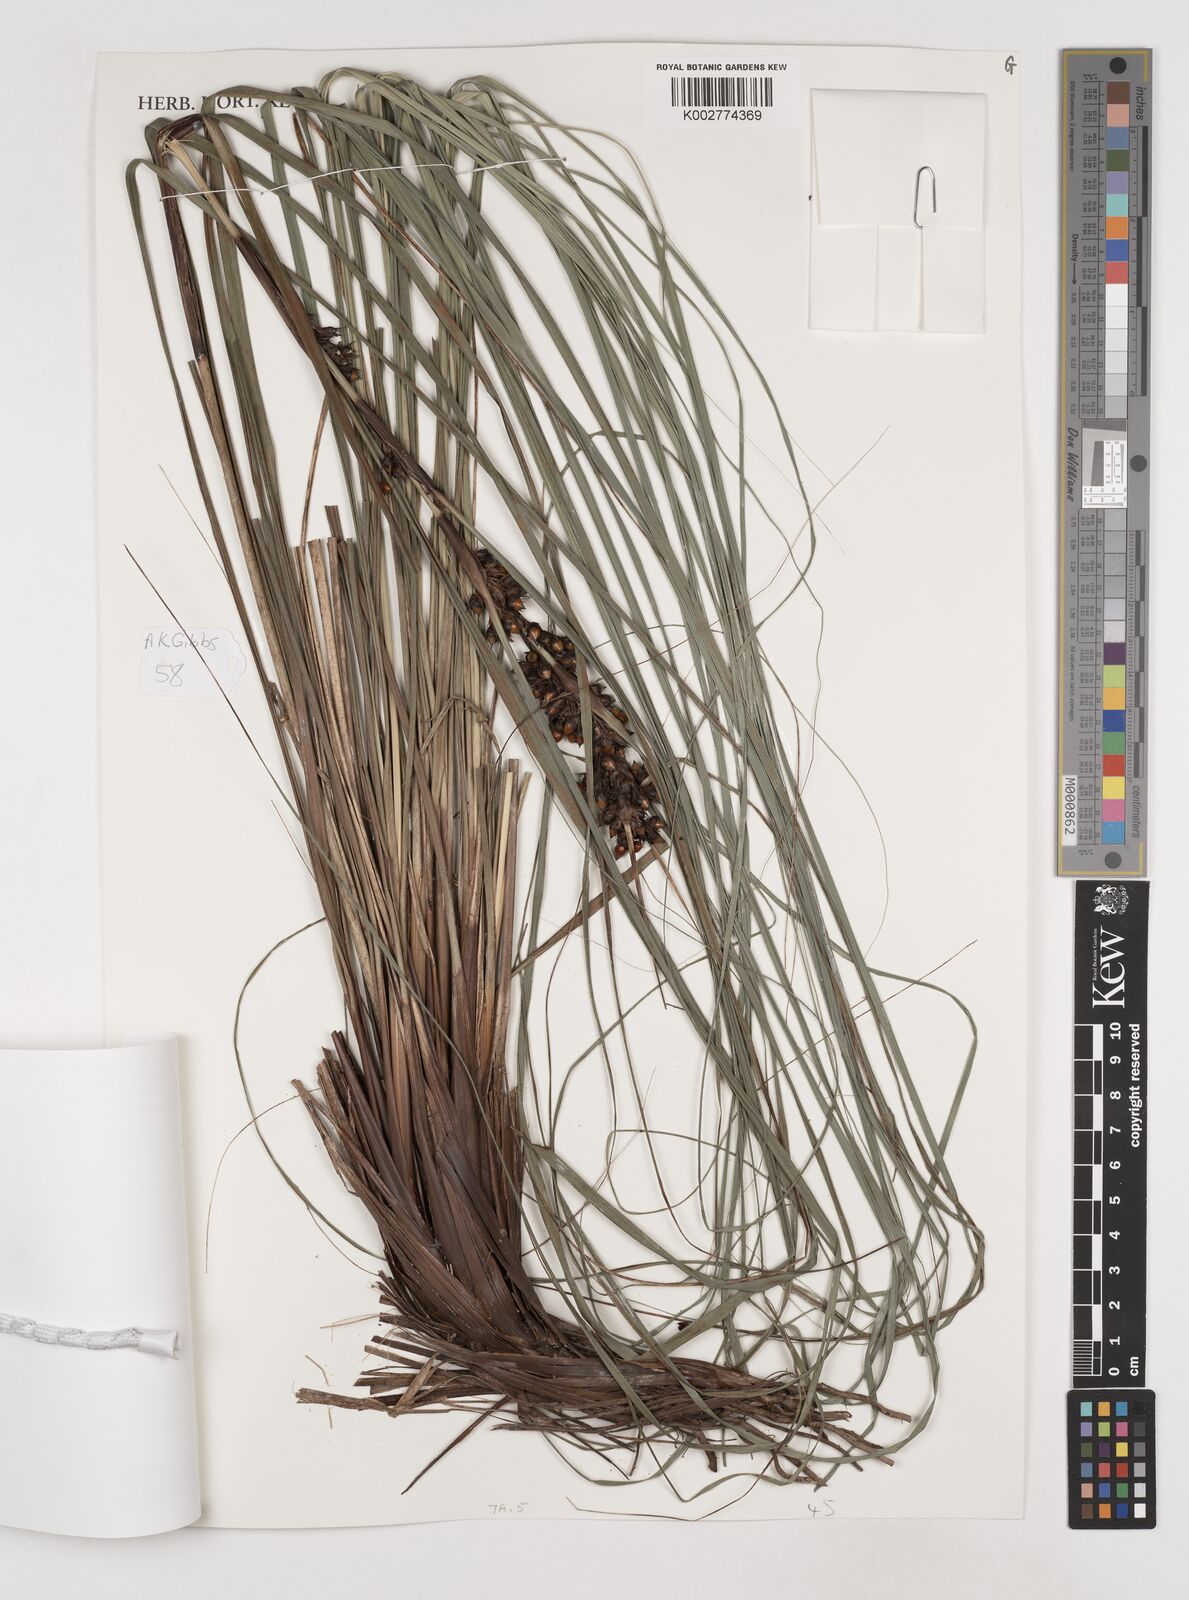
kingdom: Plantae
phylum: Tracheophyta
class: Liliopsida
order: Poales
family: Cyperaceae
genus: Gahnia
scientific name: Gahnia aspera
